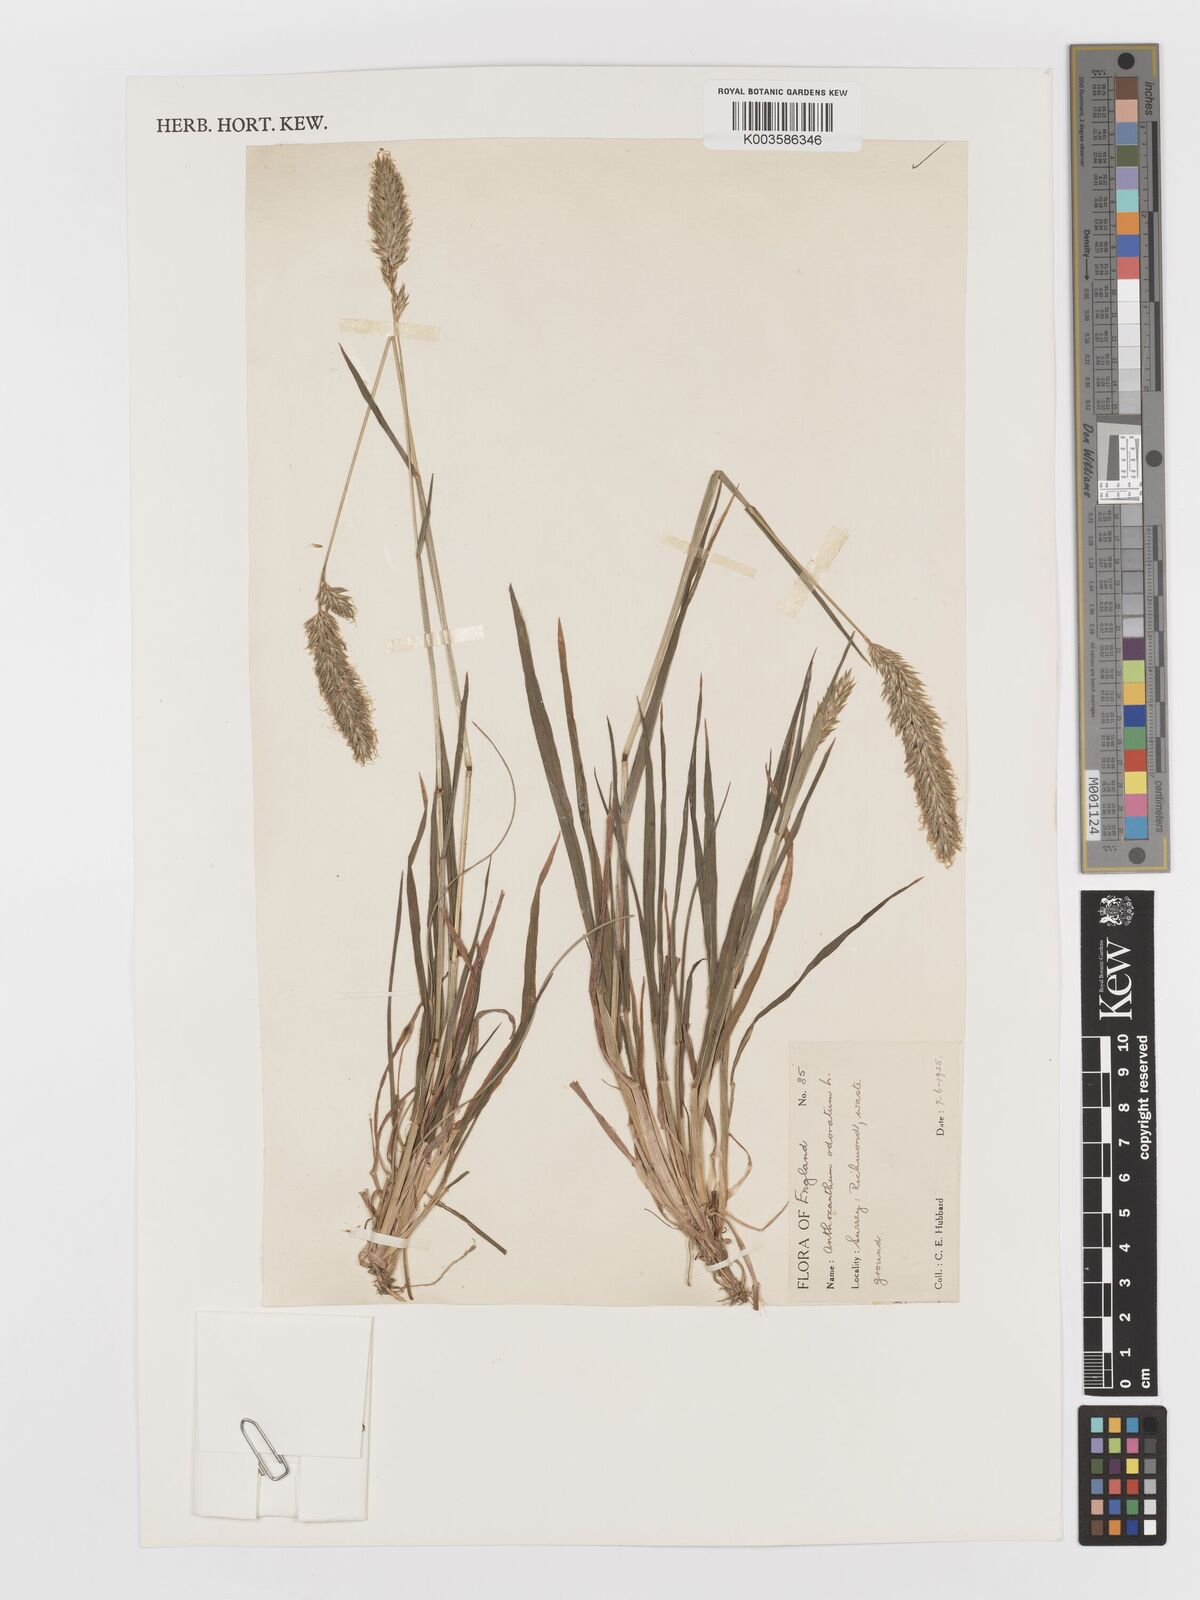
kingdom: Plantae
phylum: Tracheophyta
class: Liliopsida
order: Poales
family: Poaceae
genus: Anthoxanthum
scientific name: Anthoxanthum odoratum
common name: Sweet vernalgrass
